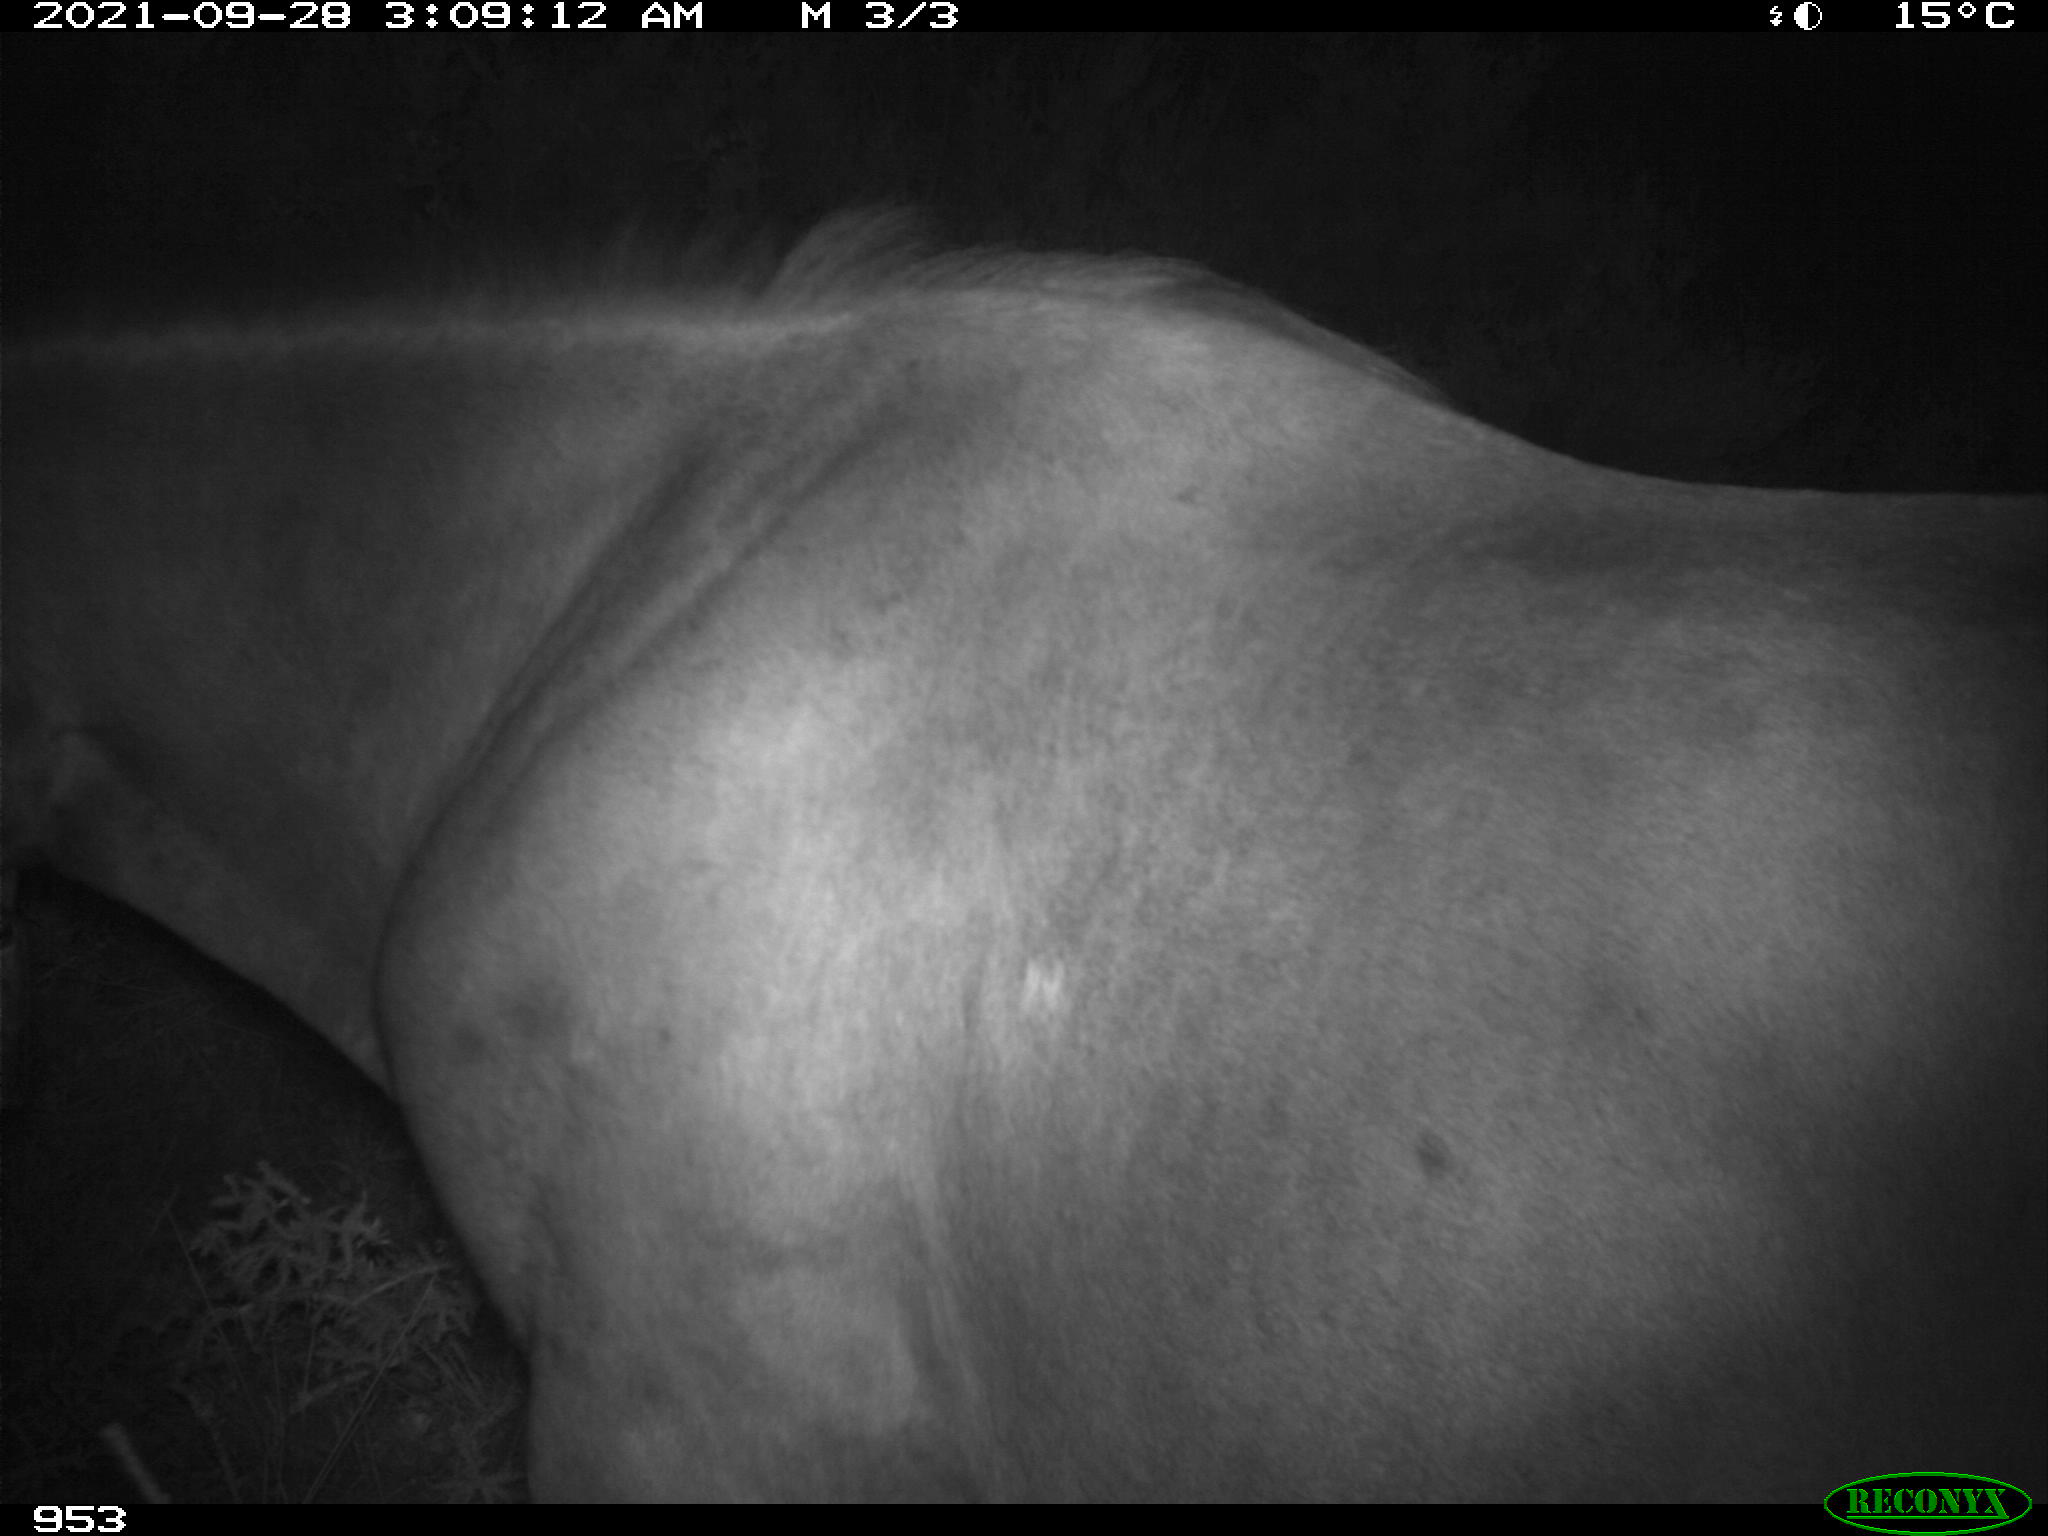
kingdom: Animalia
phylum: Chordata
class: Mammalia
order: Perissodactyla
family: Equidae
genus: Equus
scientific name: Equus caballus
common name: Horse
